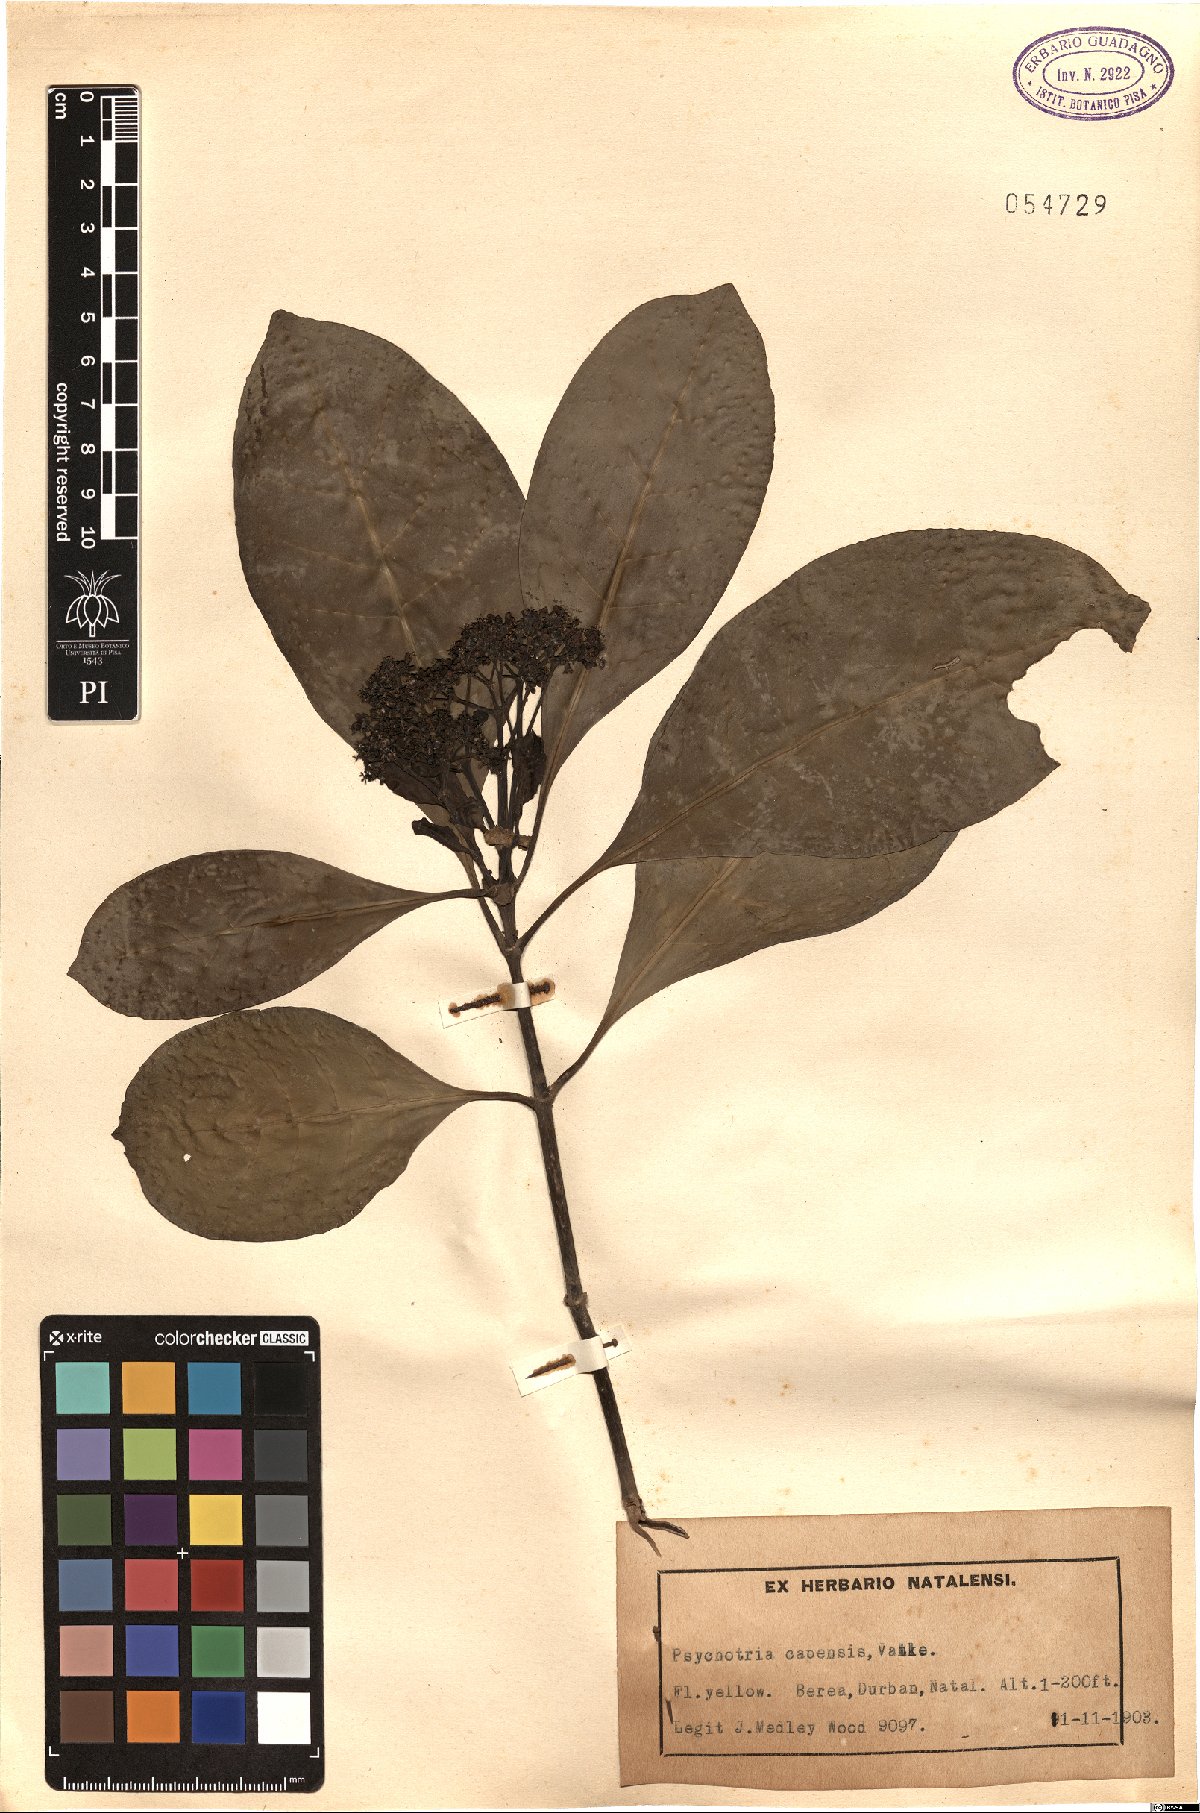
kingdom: Plantae
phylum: Tracheophyta
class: Magnoliopsida
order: Gentianales
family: Rubiaceae
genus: Psychotria
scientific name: Psychotria capensis
